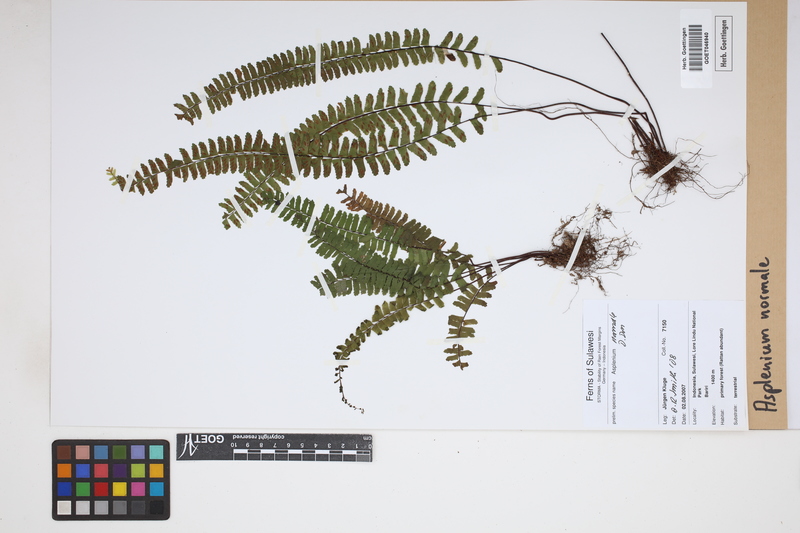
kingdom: Plantae
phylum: Tracheophyta
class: Polypodiopsida
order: Polypodiales
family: Aspleniaceae
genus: Asplenium
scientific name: Asplenium normale
